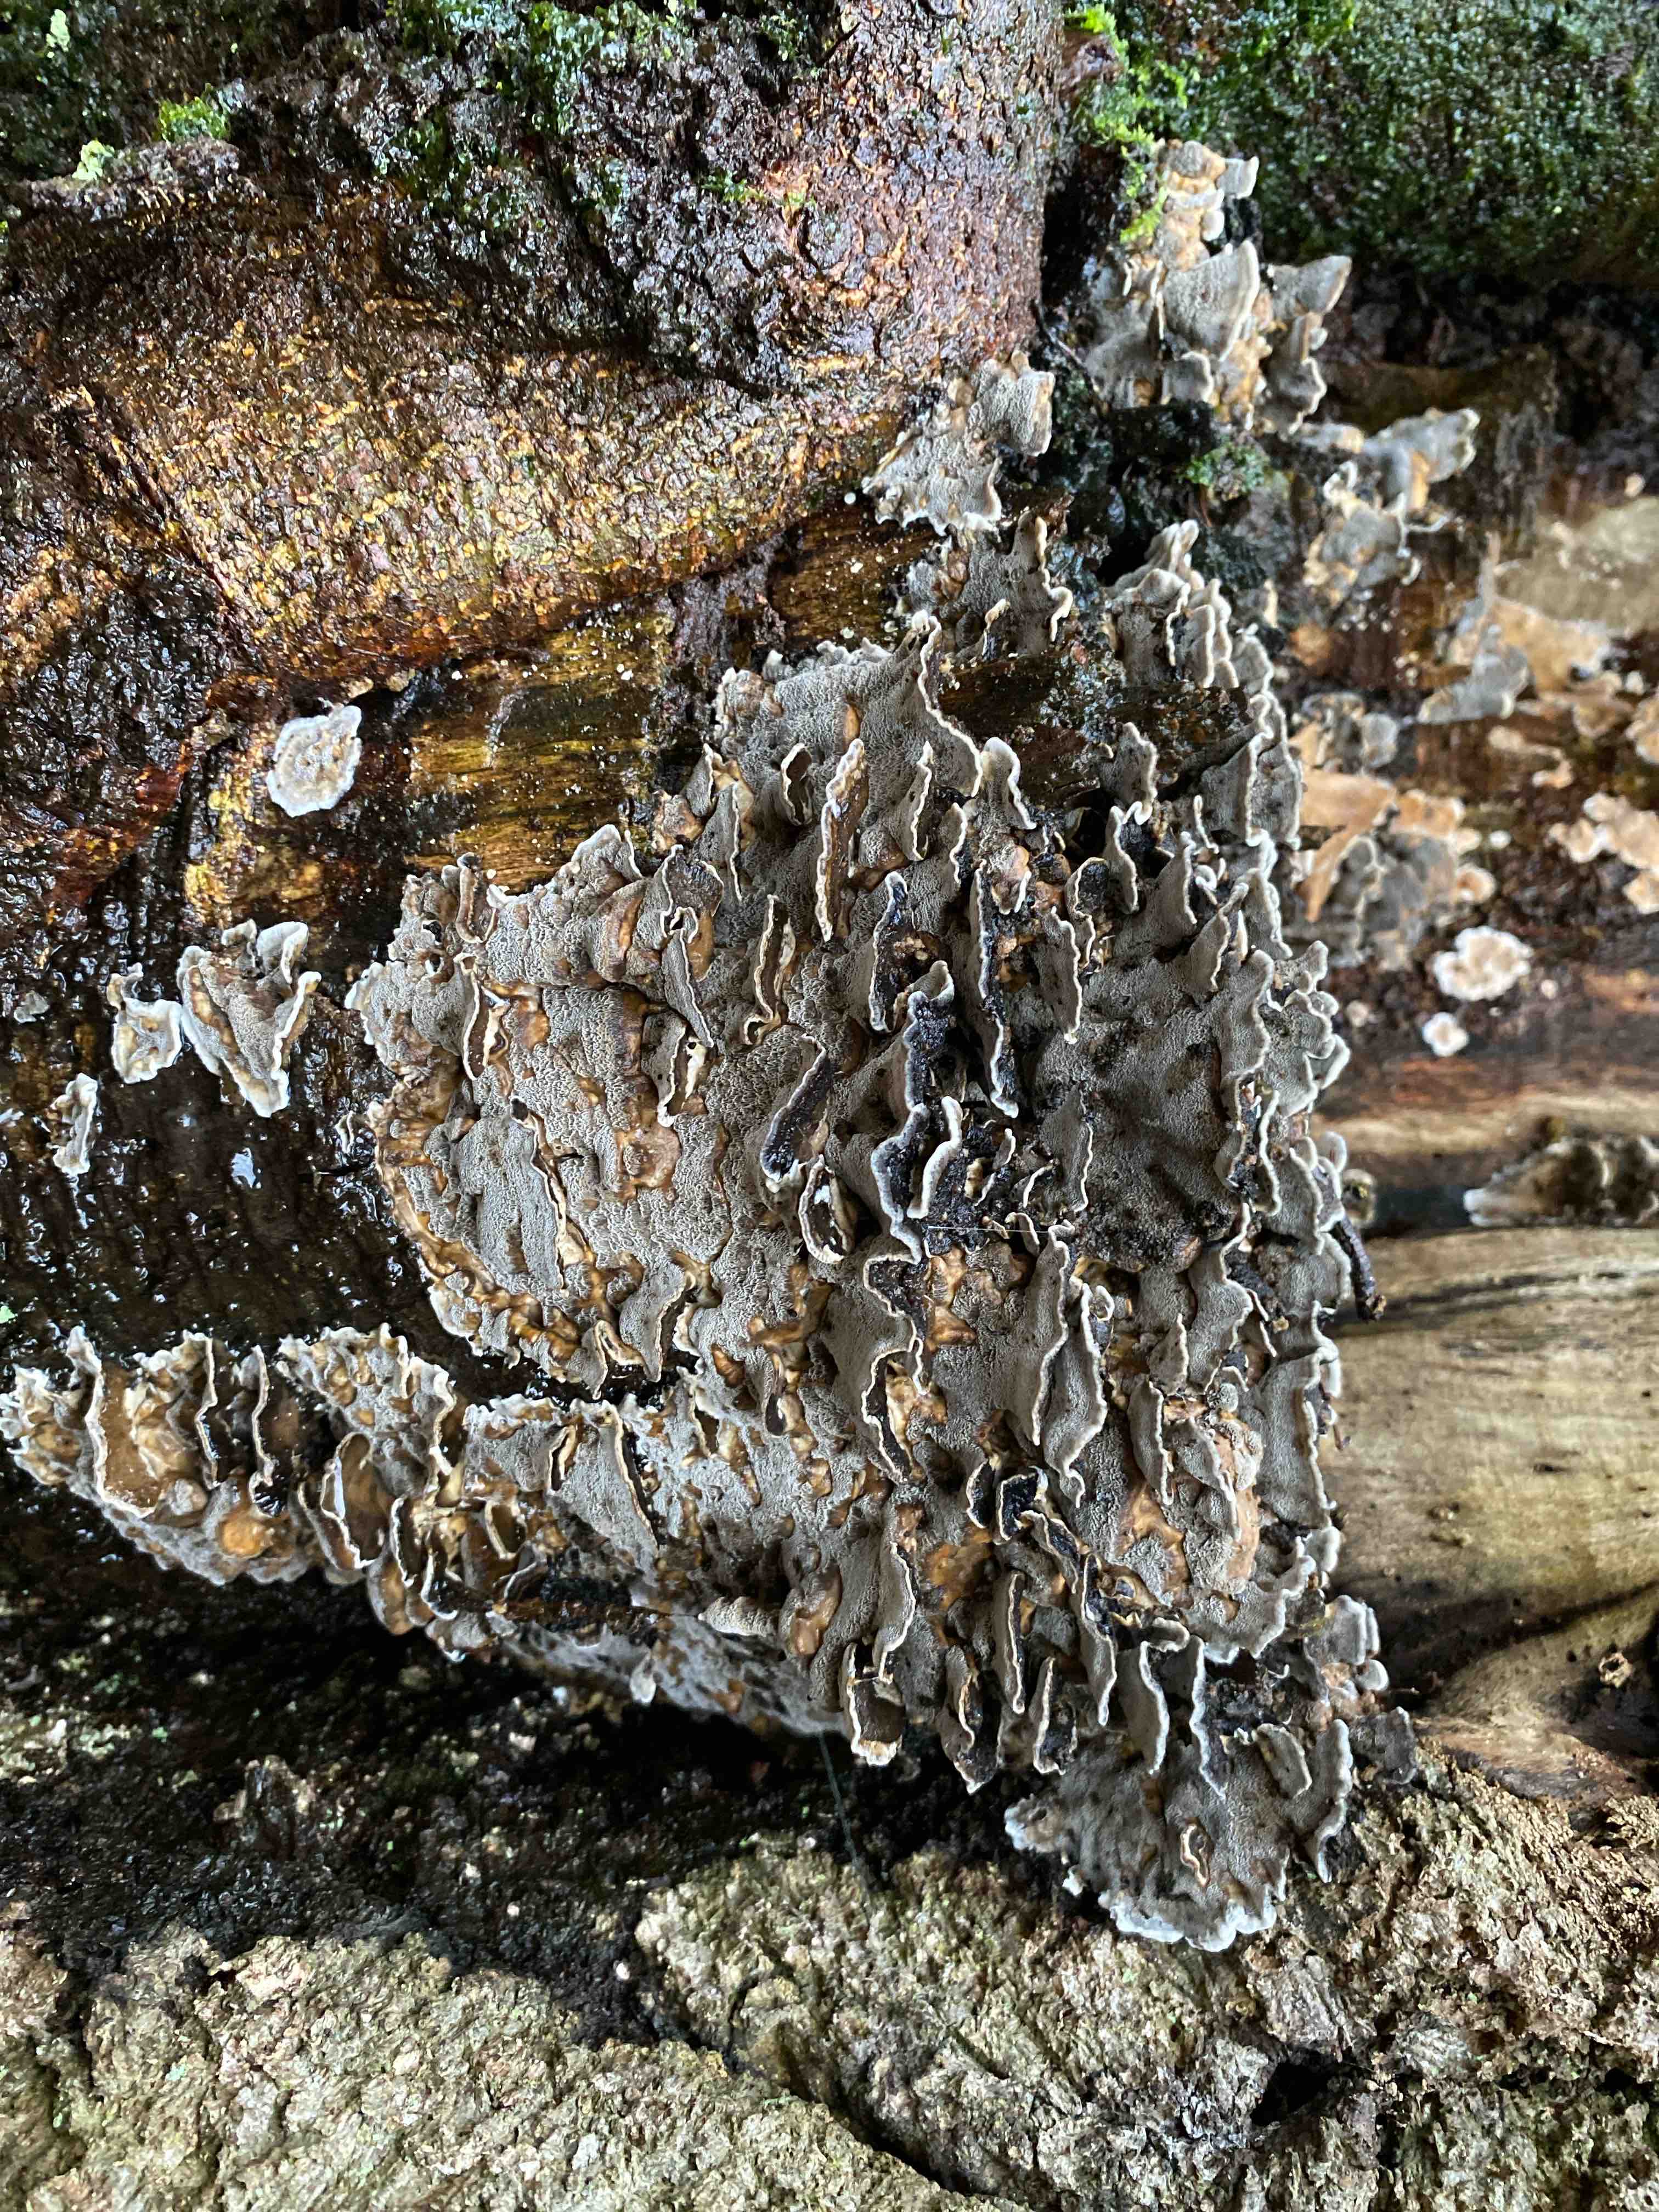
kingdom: Fungi
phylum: Basidiomycota
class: Agaricomycetes
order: Polyporales
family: Phanerochaetaceae
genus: Bjerkandera
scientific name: Bjerkandera adusta
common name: sveden sodporesvamp
